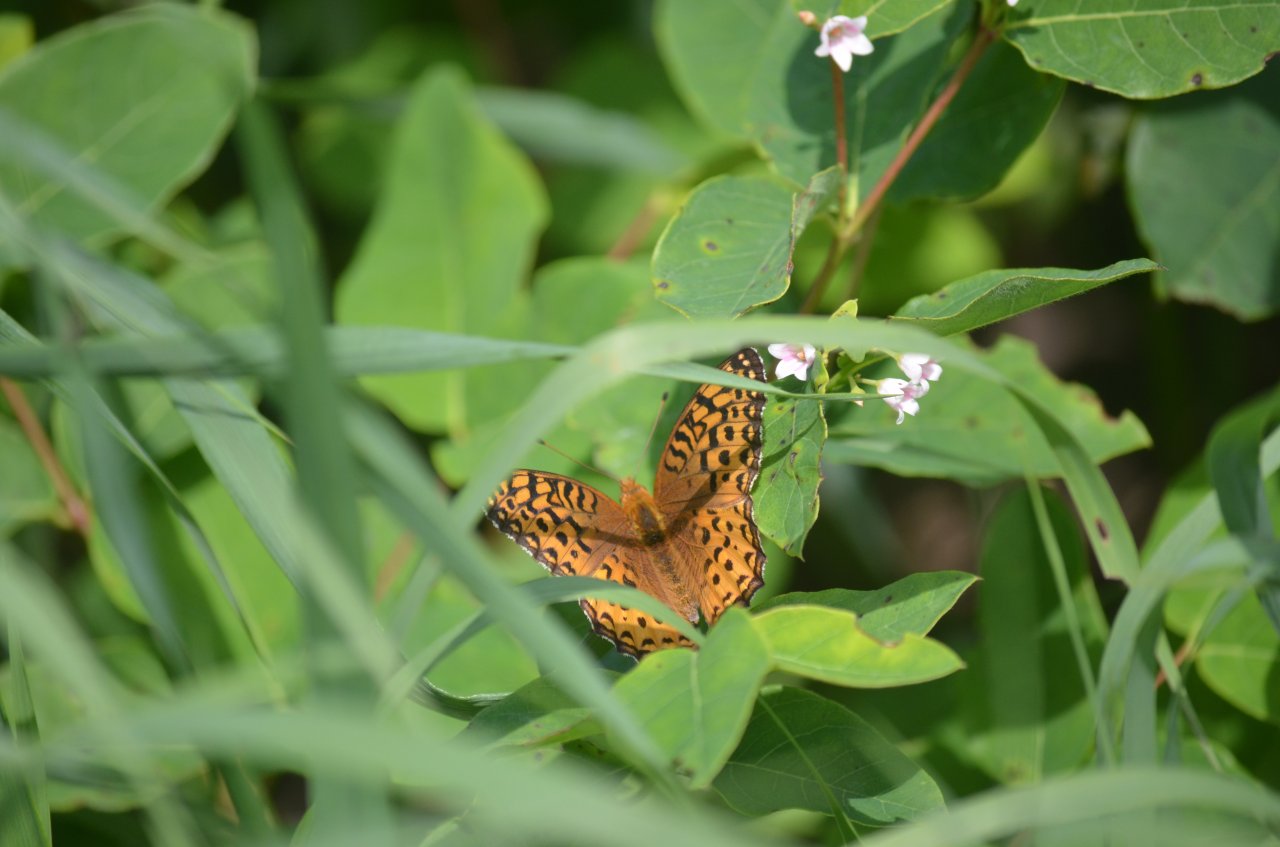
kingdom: Animalia
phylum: Arthropoda
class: Insecta
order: Lepidoptera
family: Nymphalidae
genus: Speyeria
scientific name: Speyeria aphrodite
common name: Aphrodite Fritillary
